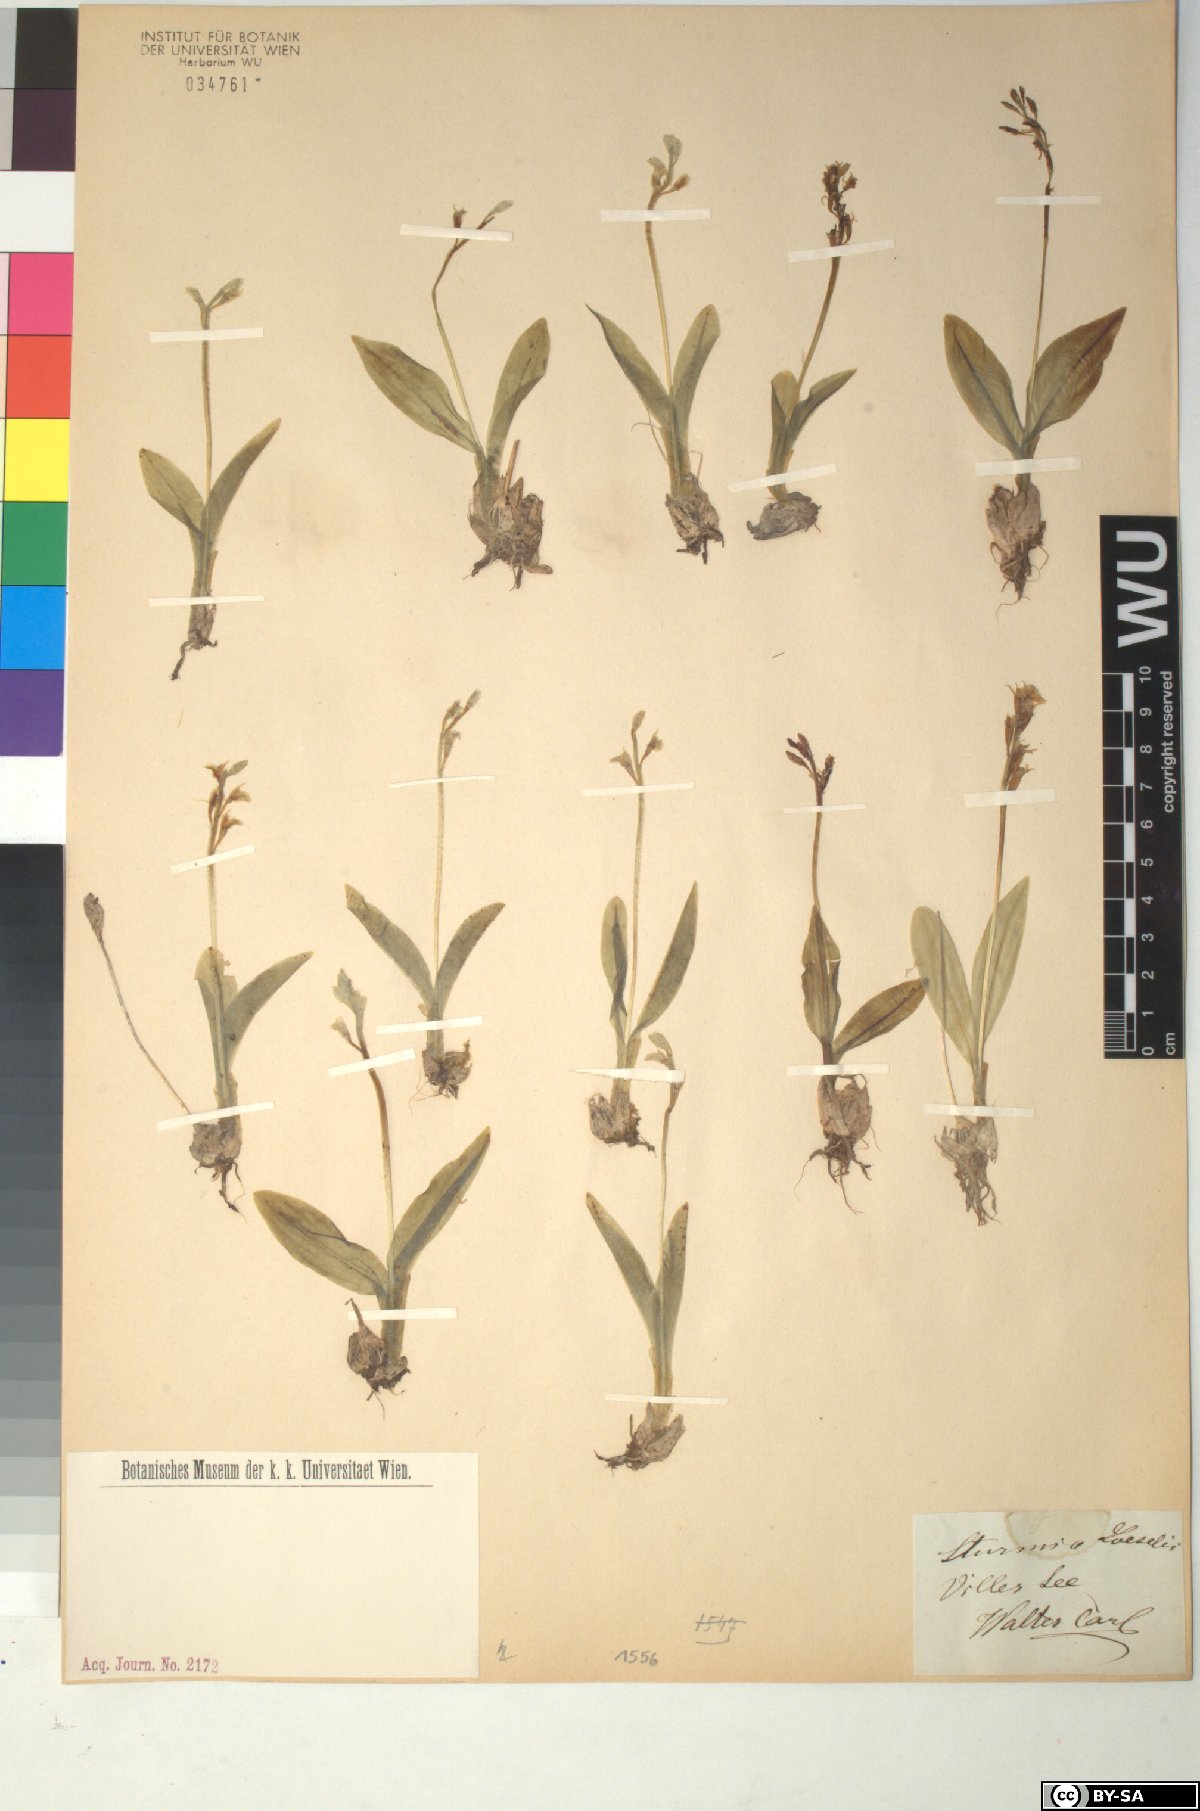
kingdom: Animalia
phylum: Arthropoda
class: Insecta
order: Coleoptera
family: Curculionidae
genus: Liparis
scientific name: Liparis loeselii
